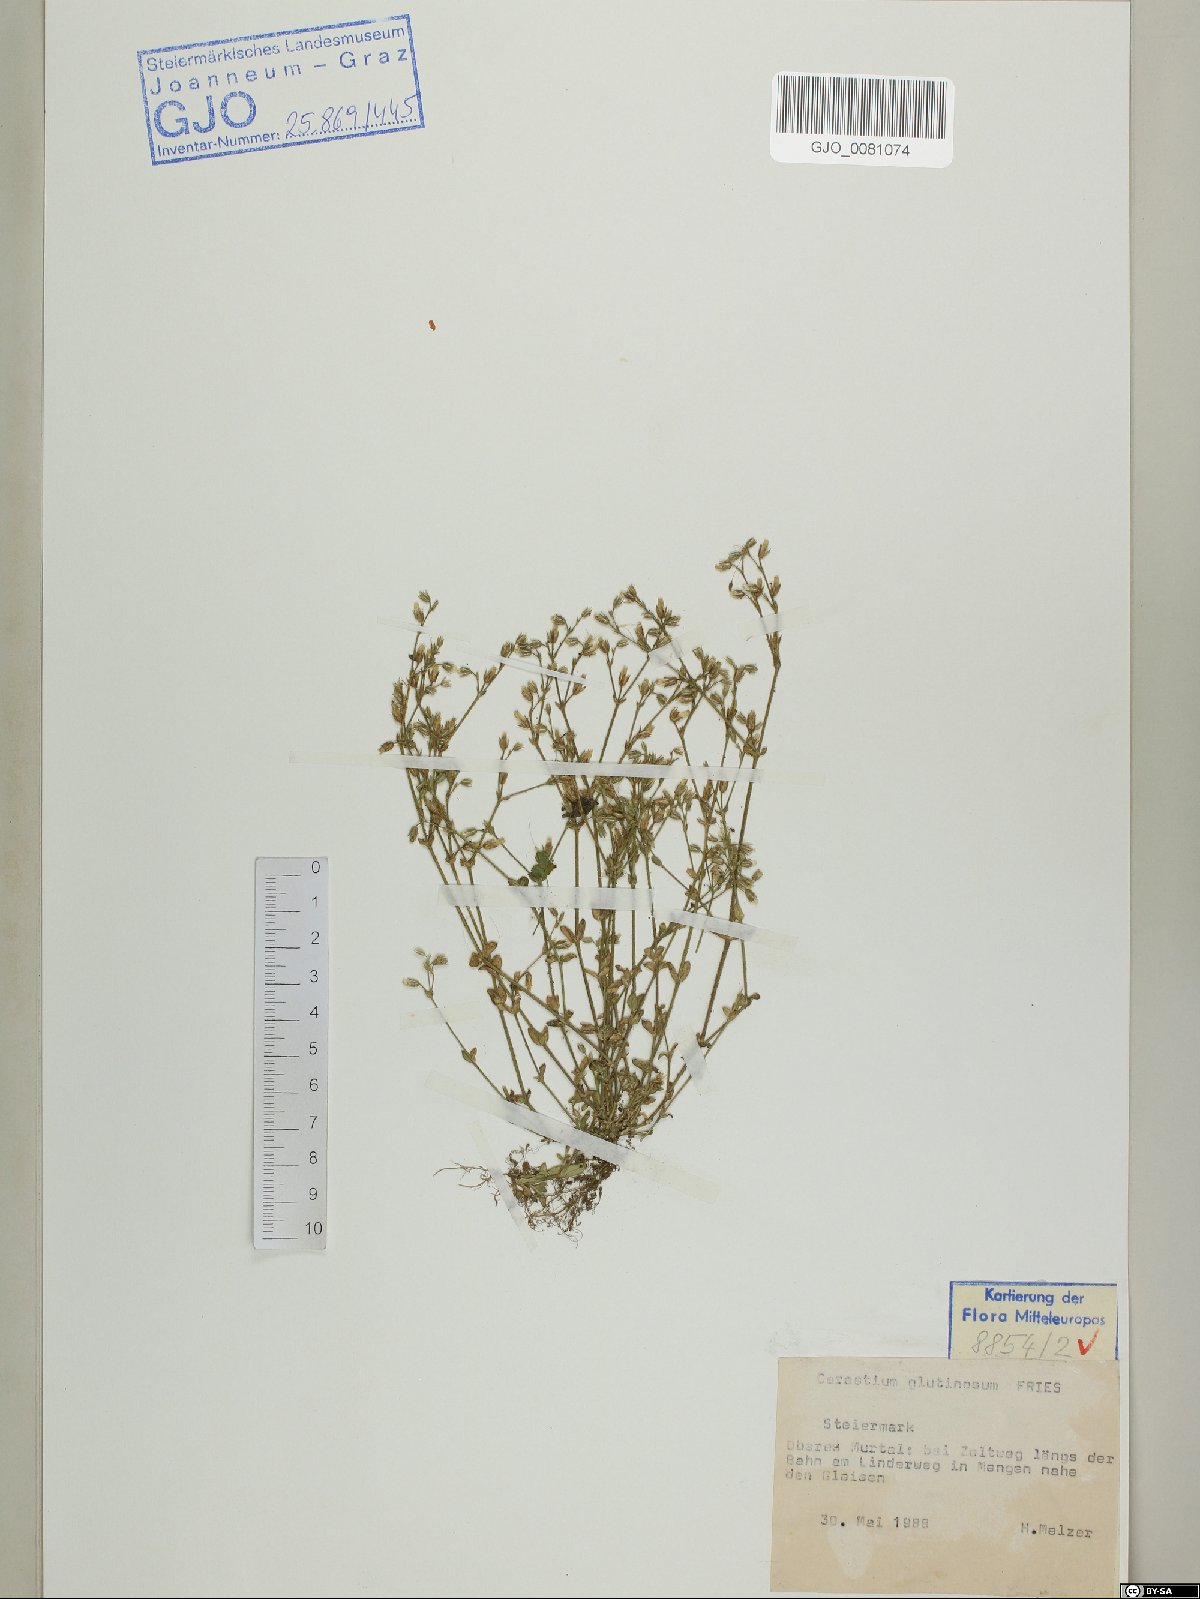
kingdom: Plantae
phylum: Tracheophyta
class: Magnoliopsida
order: Caryophyllales
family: Caryophyllaceae
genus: Cerastium
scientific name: Cerastium glutinosum
